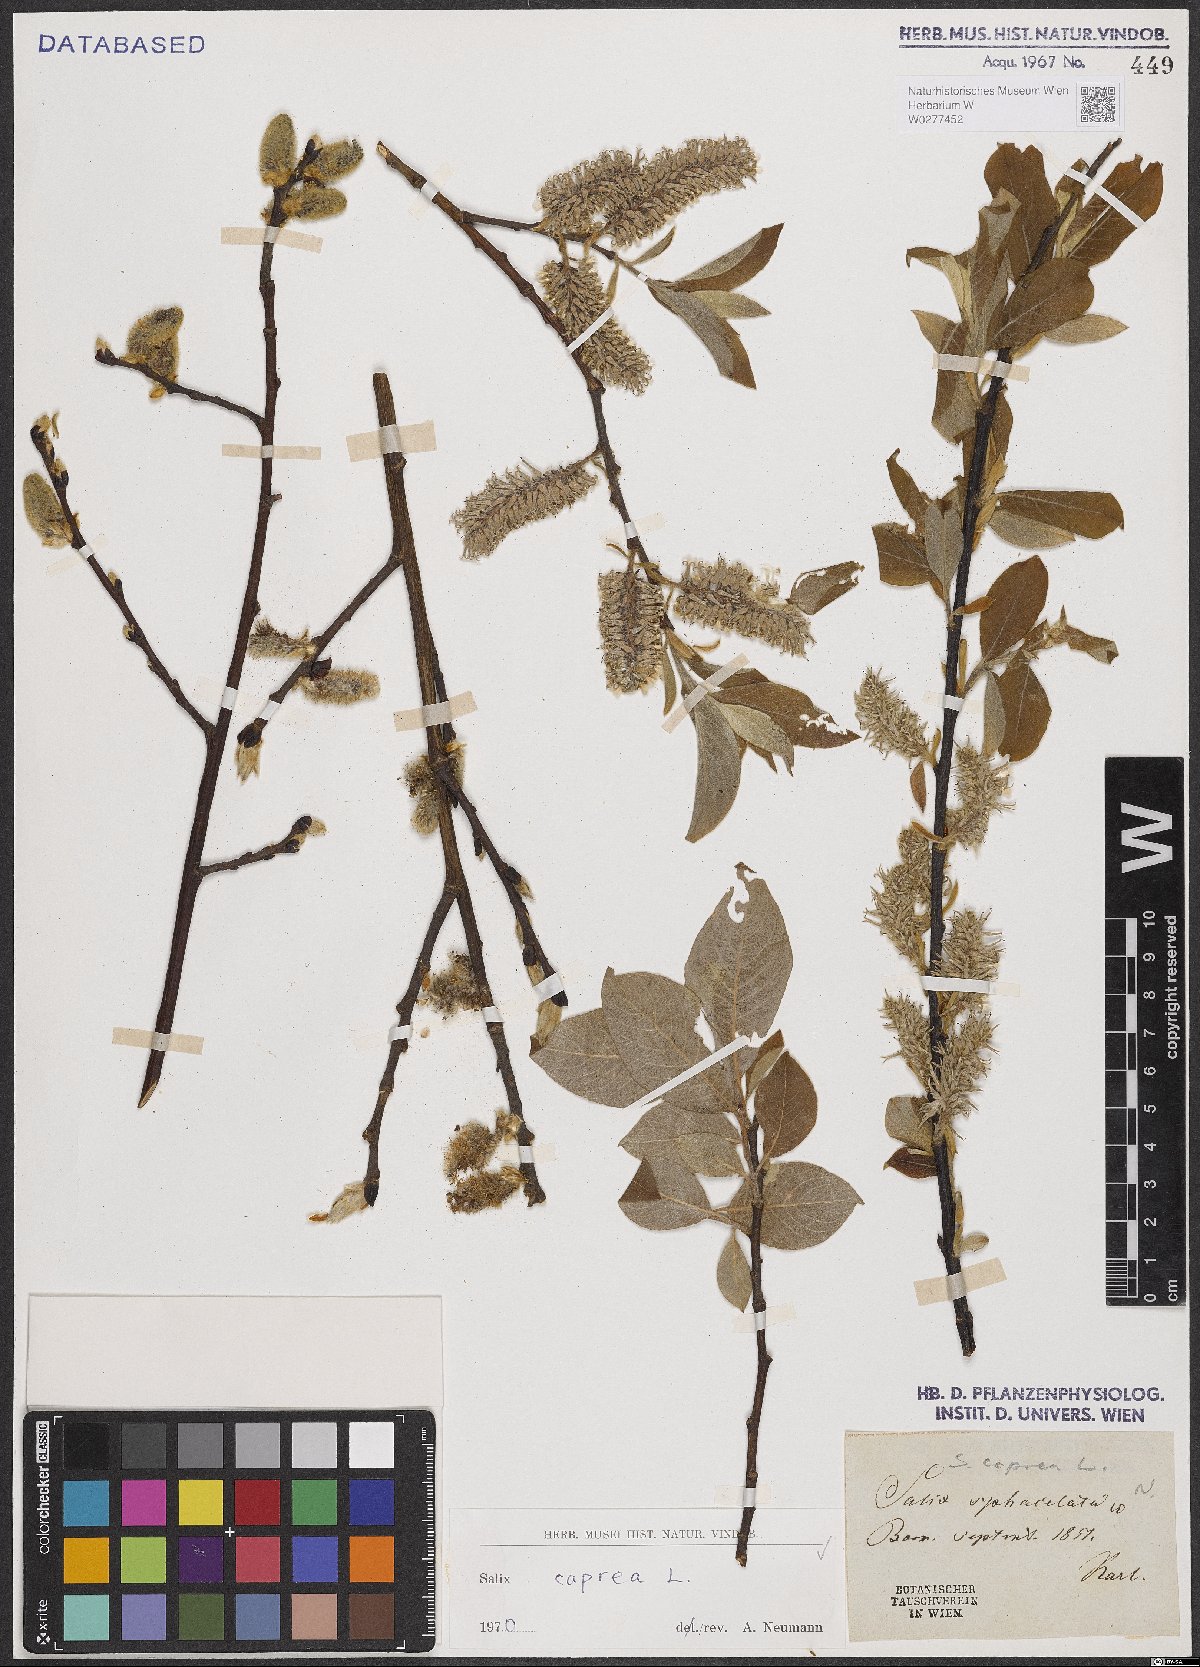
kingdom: Plantae
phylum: Tracheophyta
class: Magnoliopsida
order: Malpighiales
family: Salicaceae
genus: Salix
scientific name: Salix caprea
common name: Goat willow
